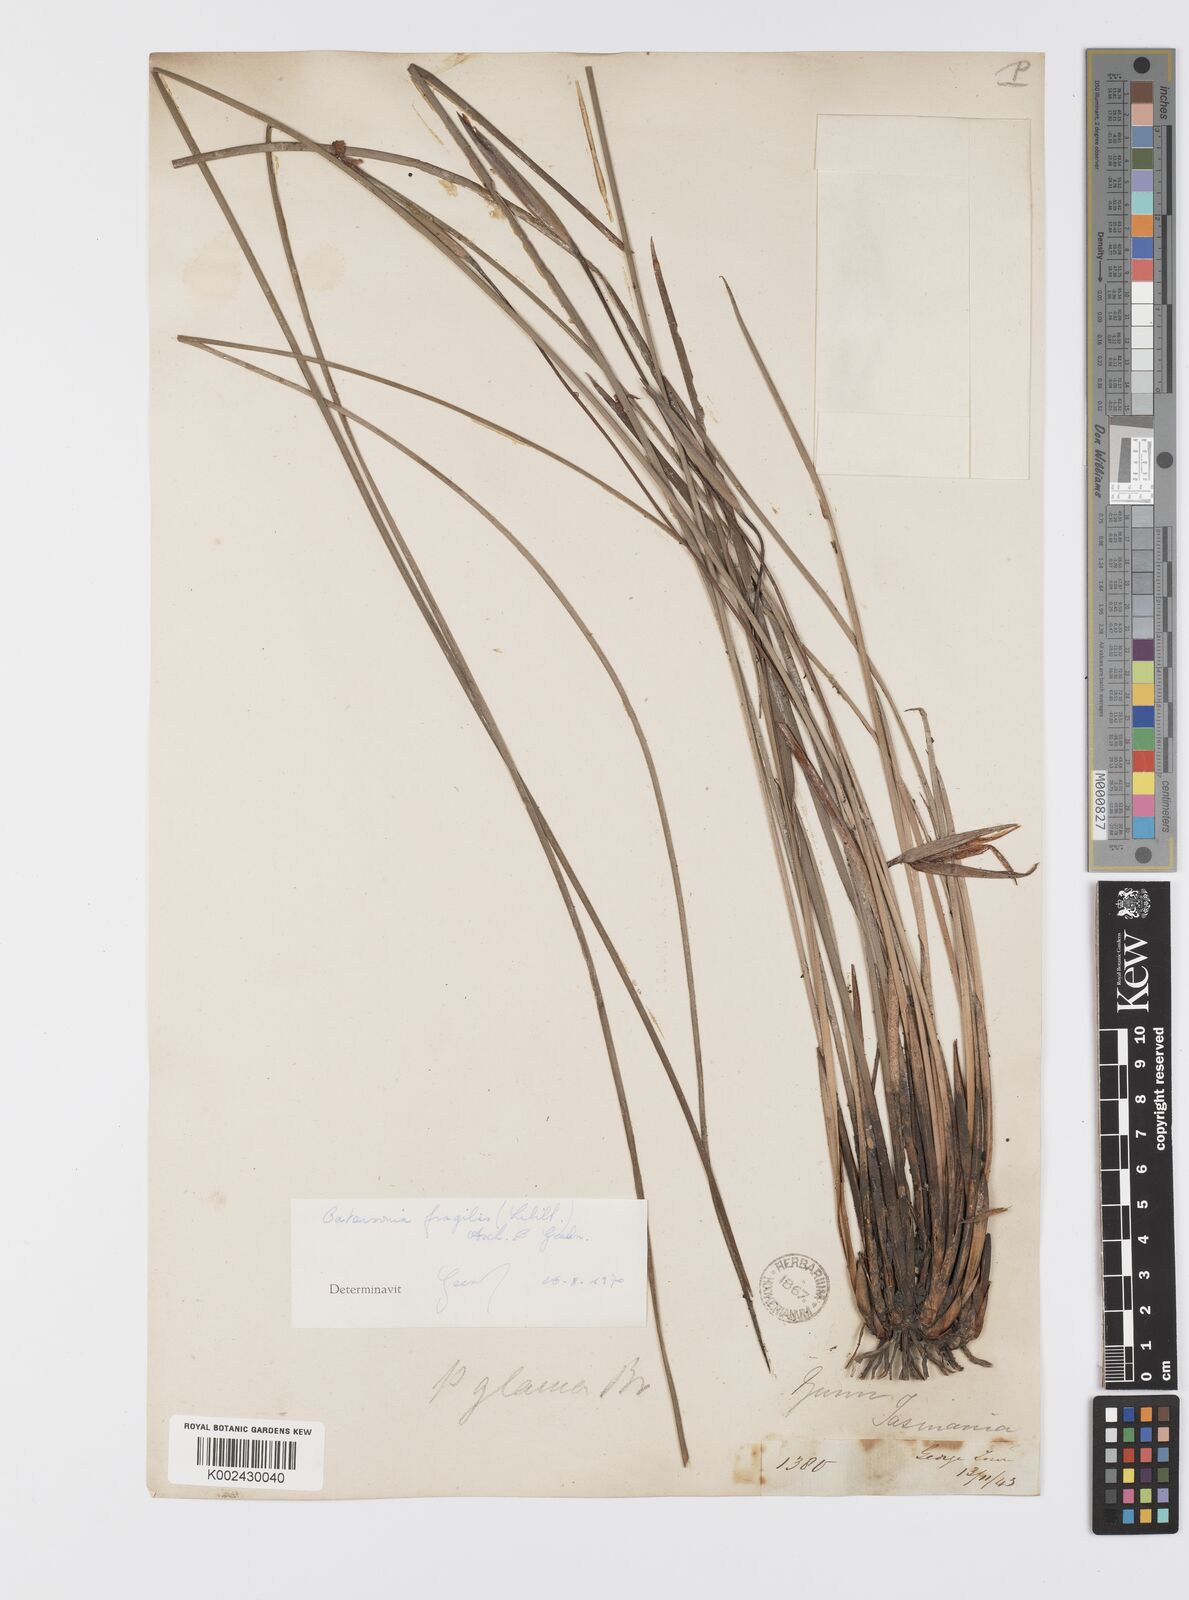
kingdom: Plantae
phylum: Tracheophyta
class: Liliopsida
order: Asparagales
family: Iridaceae
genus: Patersonia
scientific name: Patersonia fragilis
